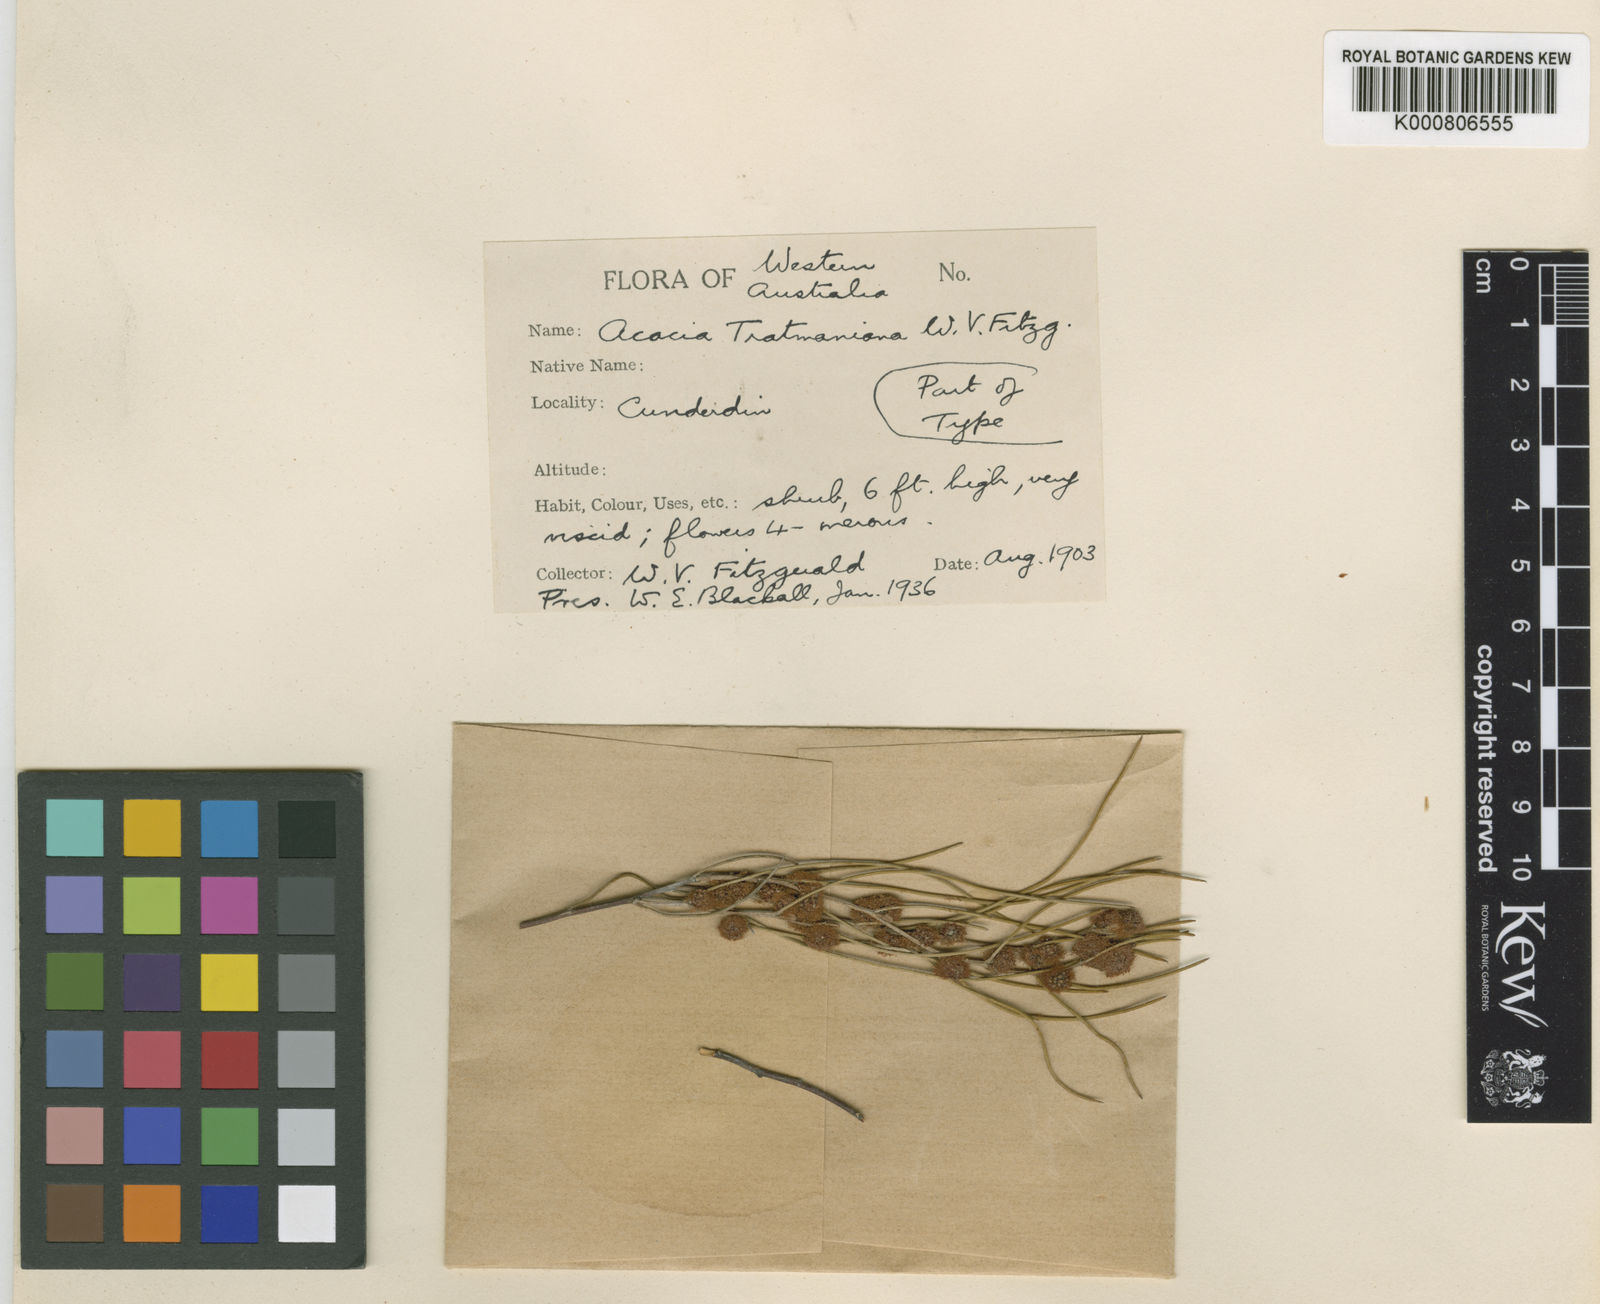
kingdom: Plantae
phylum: Tracheophyta
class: Magnoliopsida
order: Fabales
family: Fabaceae
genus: Acacia
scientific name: Acacia tratmaniana
